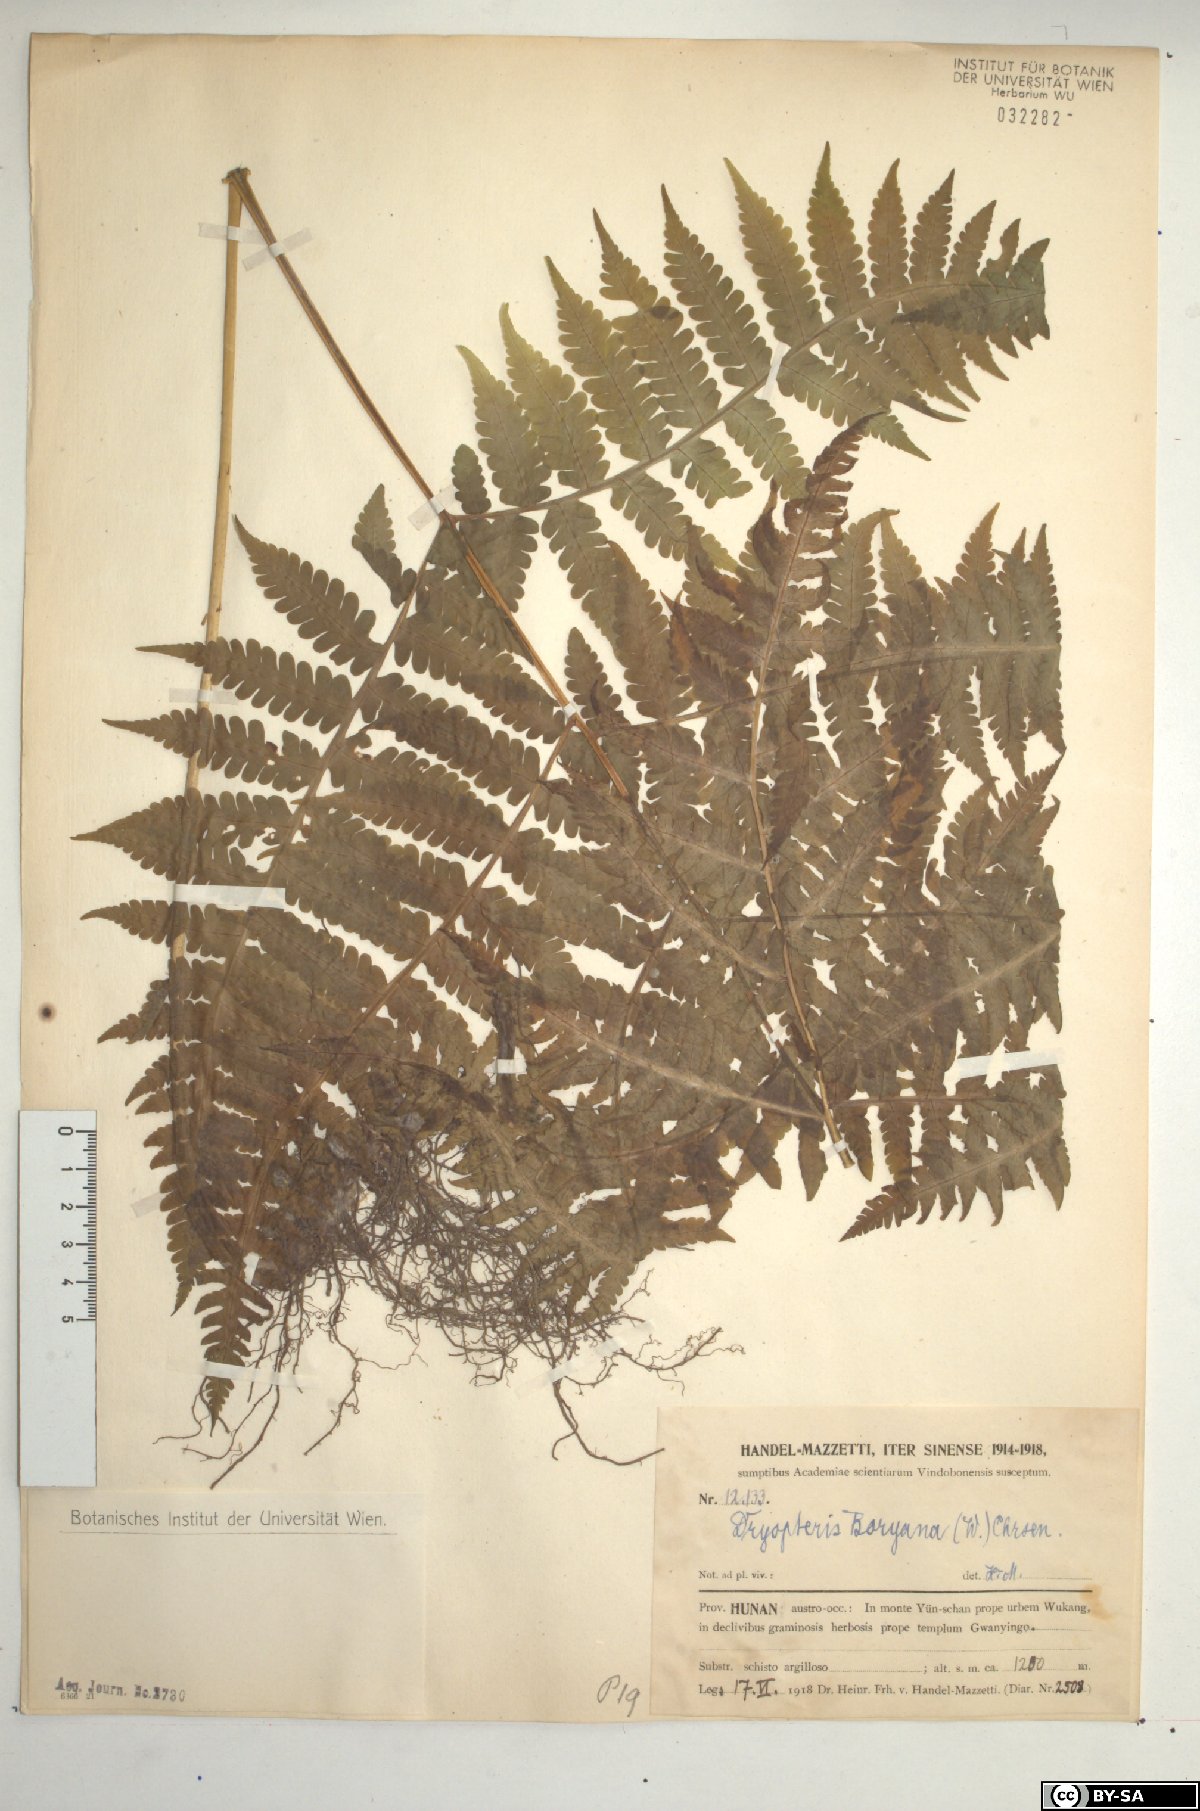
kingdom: Plantae
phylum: Tracheophyta
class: Polypodiopsida
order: Polypodiales
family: Athyriaceae
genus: Deparia
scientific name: Deparia boryana
